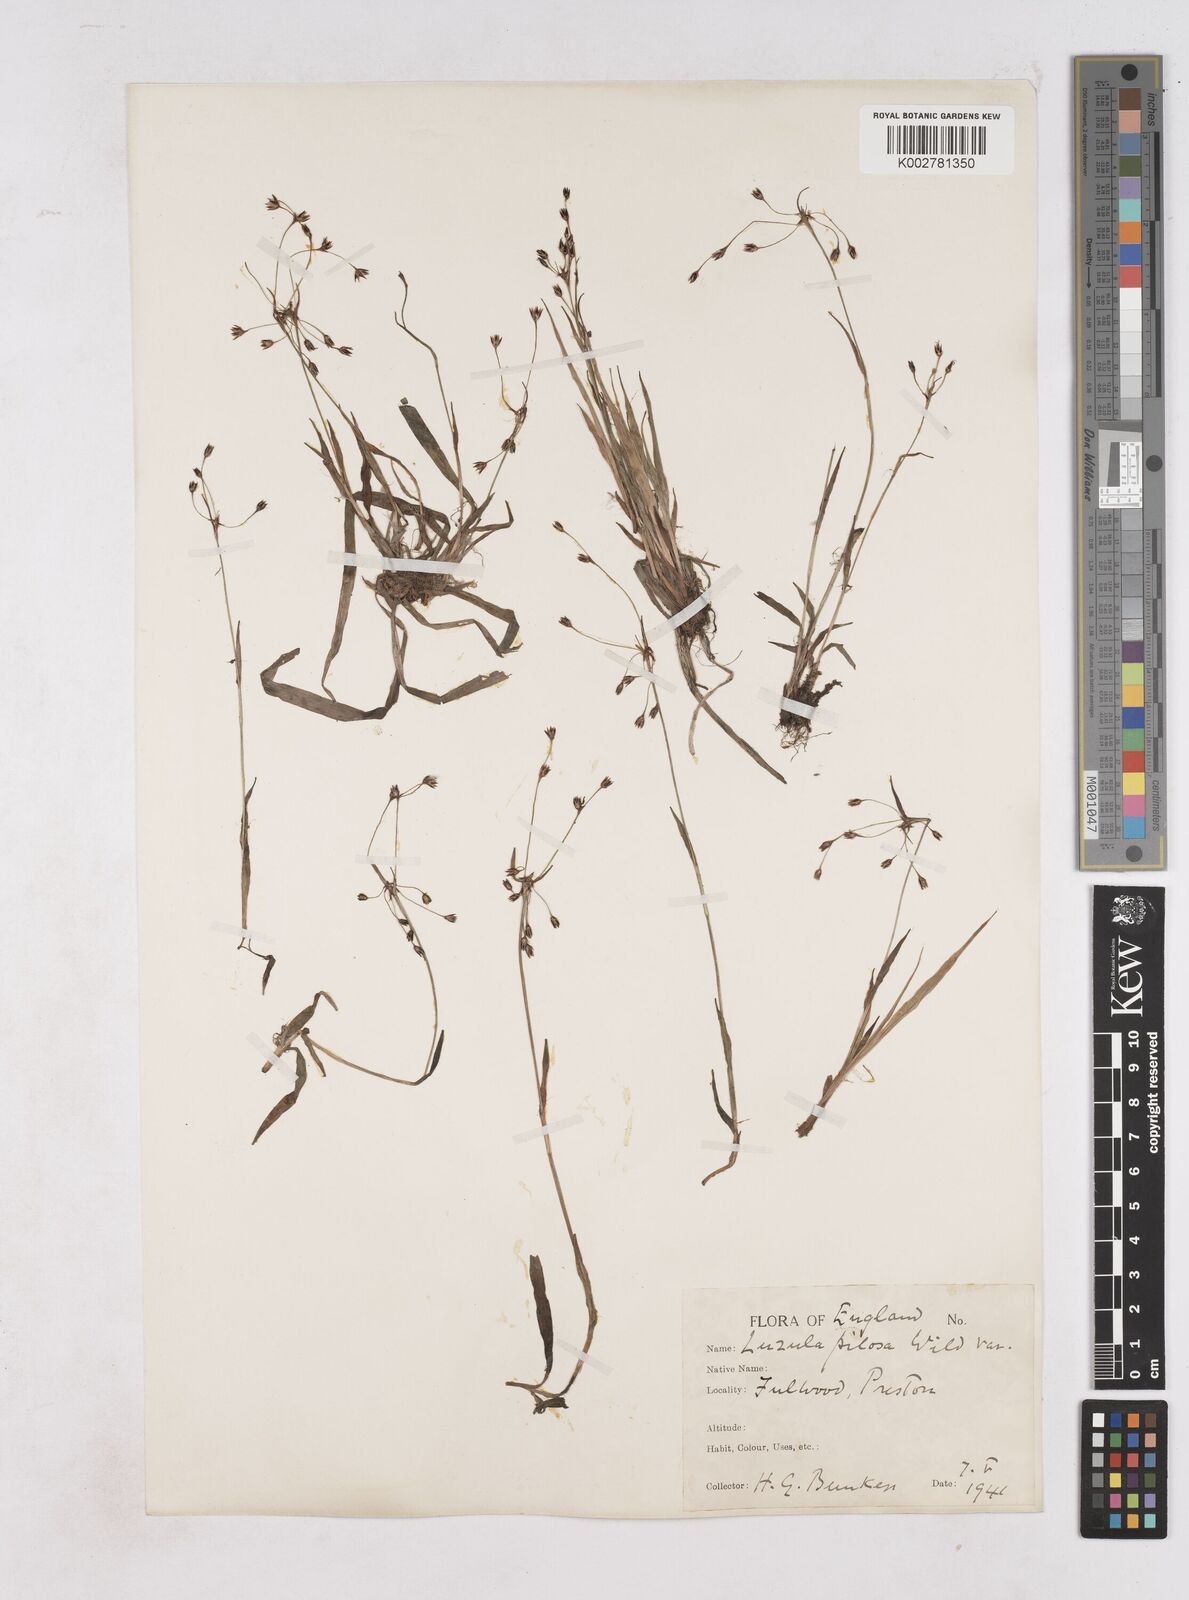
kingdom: Plantae
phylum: Tracheophyta
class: Liliopsida
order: Poales
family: Juncaceae
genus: Luzula
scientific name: Luzula pilosa
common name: Hairy wood-rush
